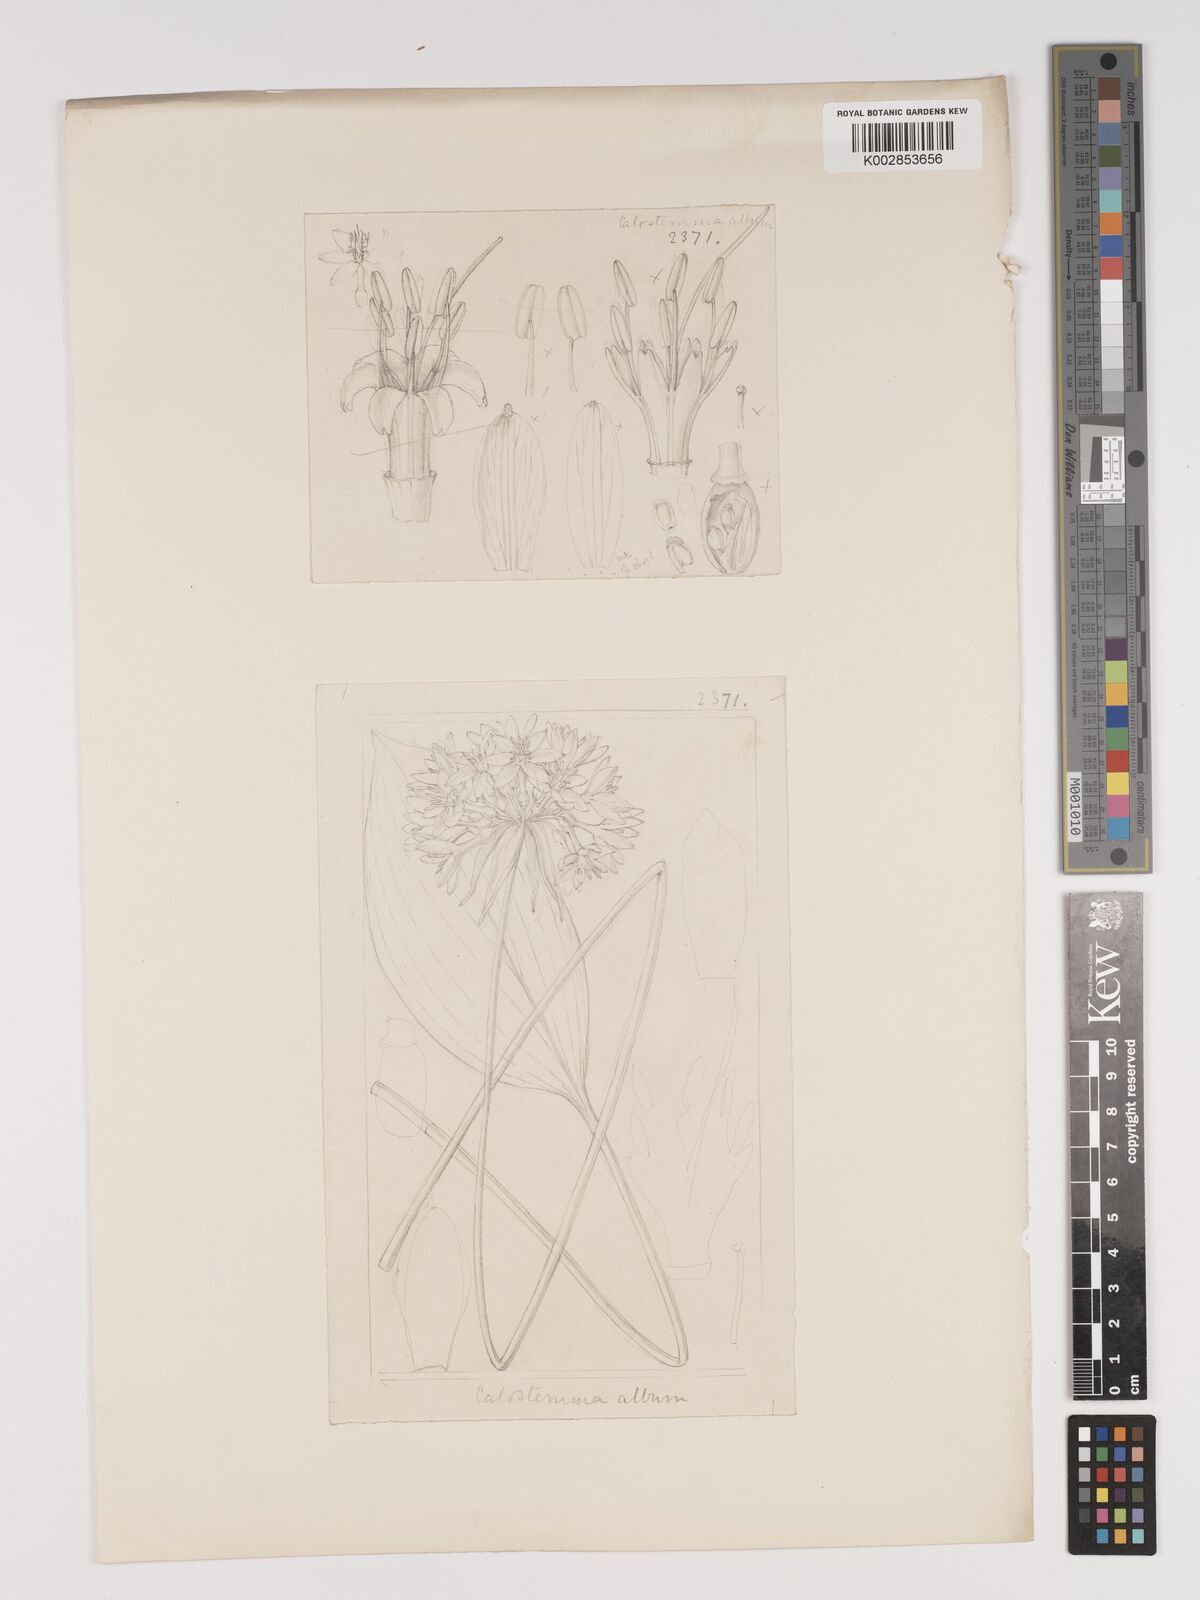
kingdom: Plantae
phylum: Tracheophyta
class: Liliopsida
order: Asparagales
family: Amaryllidaceae
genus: Proiphys
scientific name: Proiphys alba
